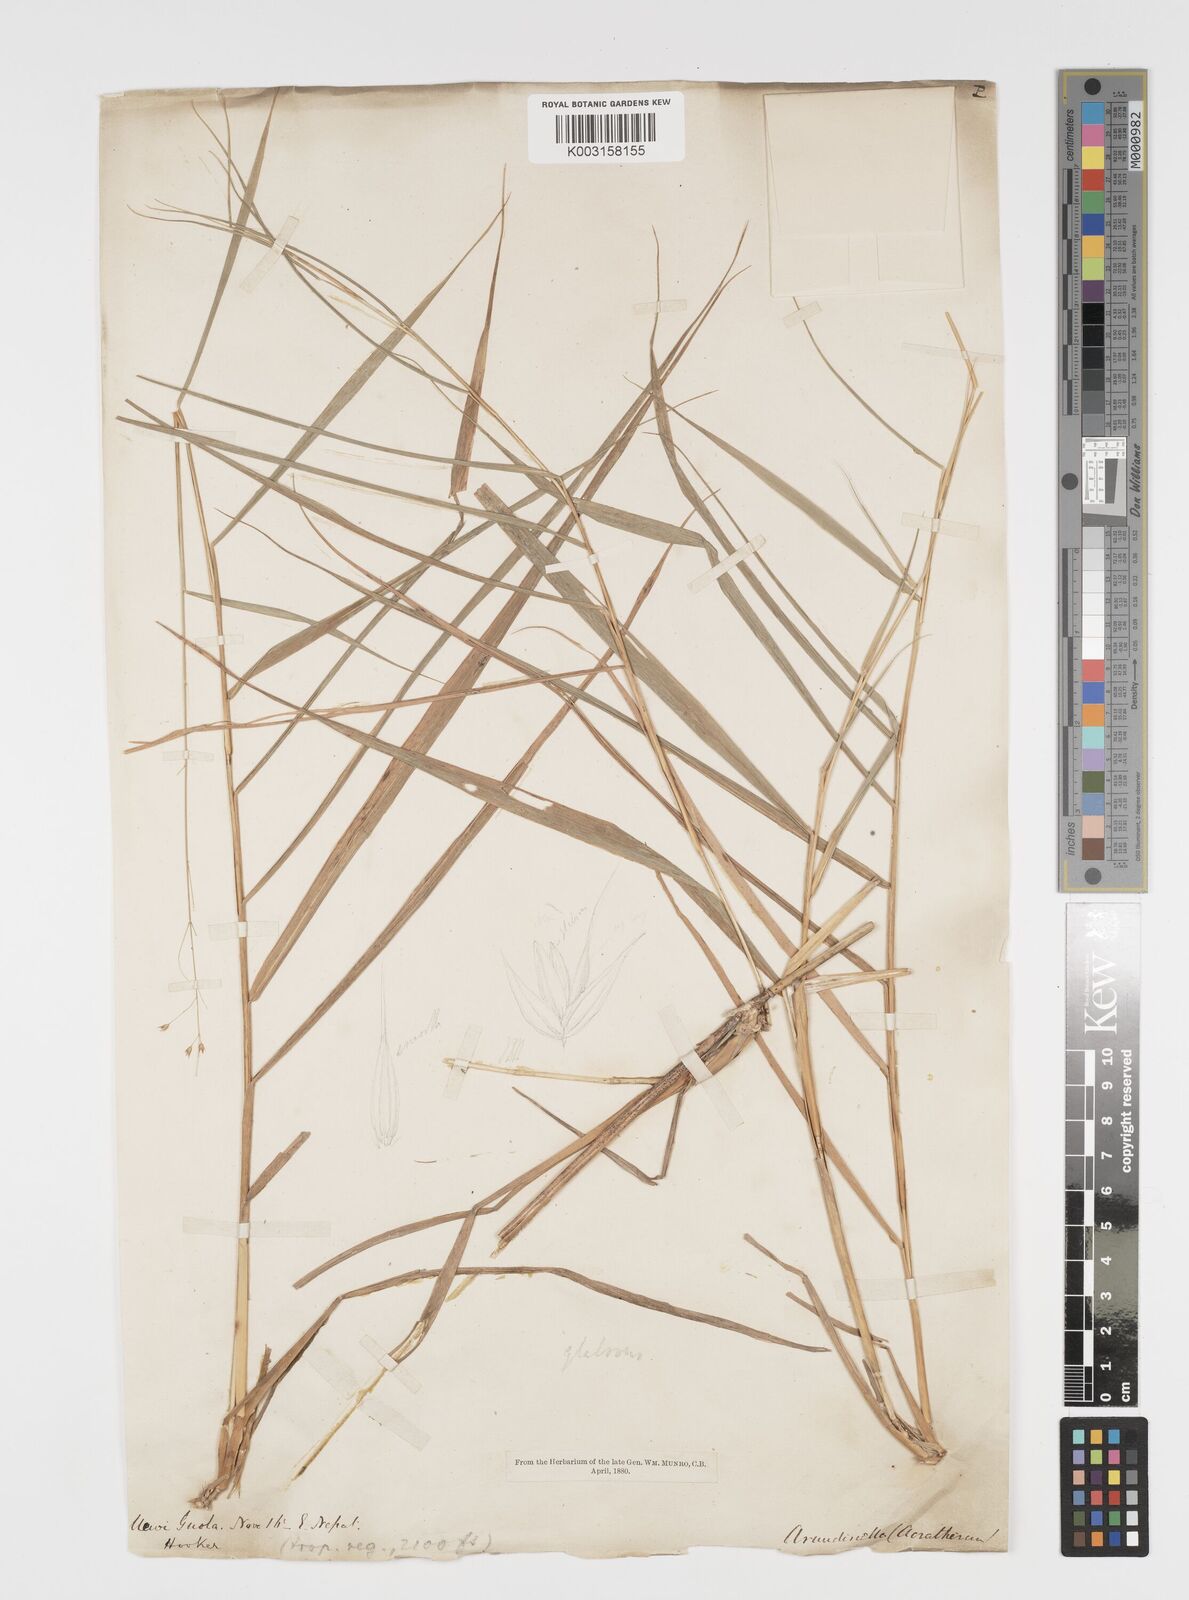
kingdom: Plantae
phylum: Tracheophyta
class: Liliopsida
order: Poales
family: Poaceae
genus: Arundinella
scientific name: Arundinella nepalensis
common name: Reed grass
